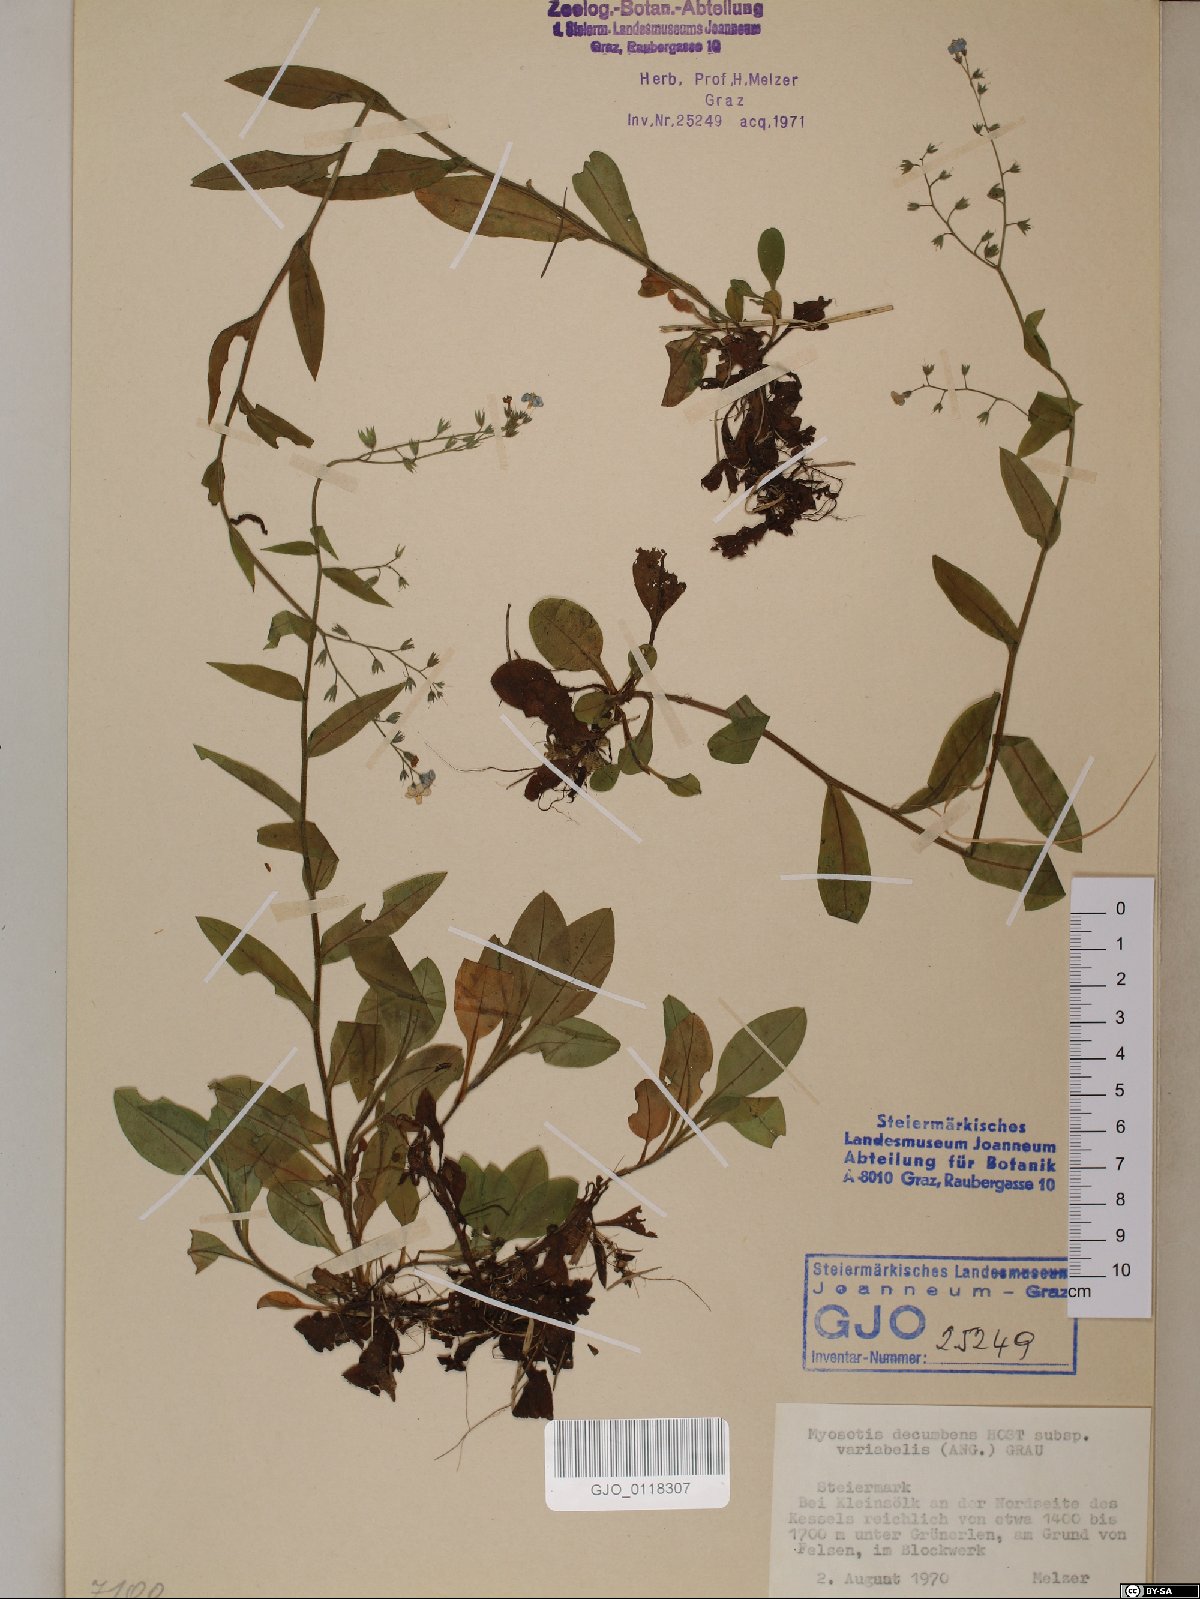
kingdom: Plantae
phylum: Tracheophyta
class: Magnoliopsida
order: Boraginales
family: Boraginaceae
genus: Myosotis
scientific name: Myosotis decumbens
